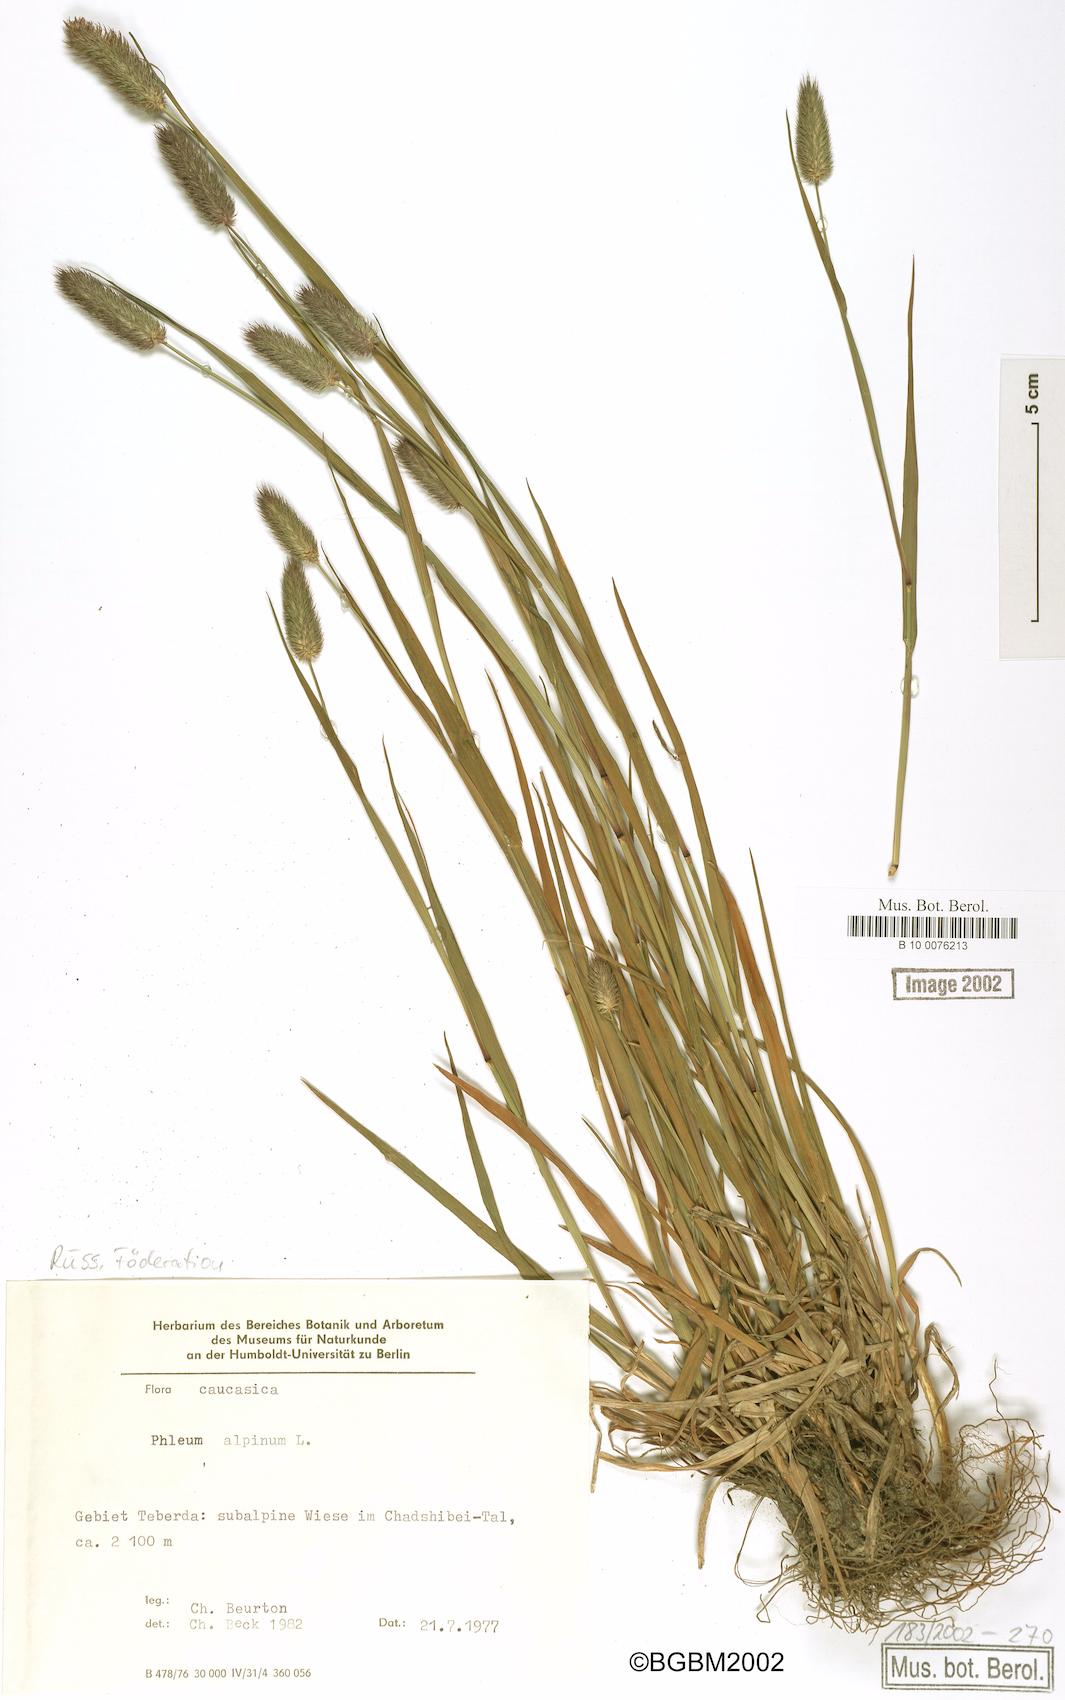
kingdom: Plantae
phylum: Tracheophyta
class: Liliopsida
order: Poales
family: Poaceae
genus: Phleum
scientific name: Phleum alpinum
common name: Alpine cat's-tail
